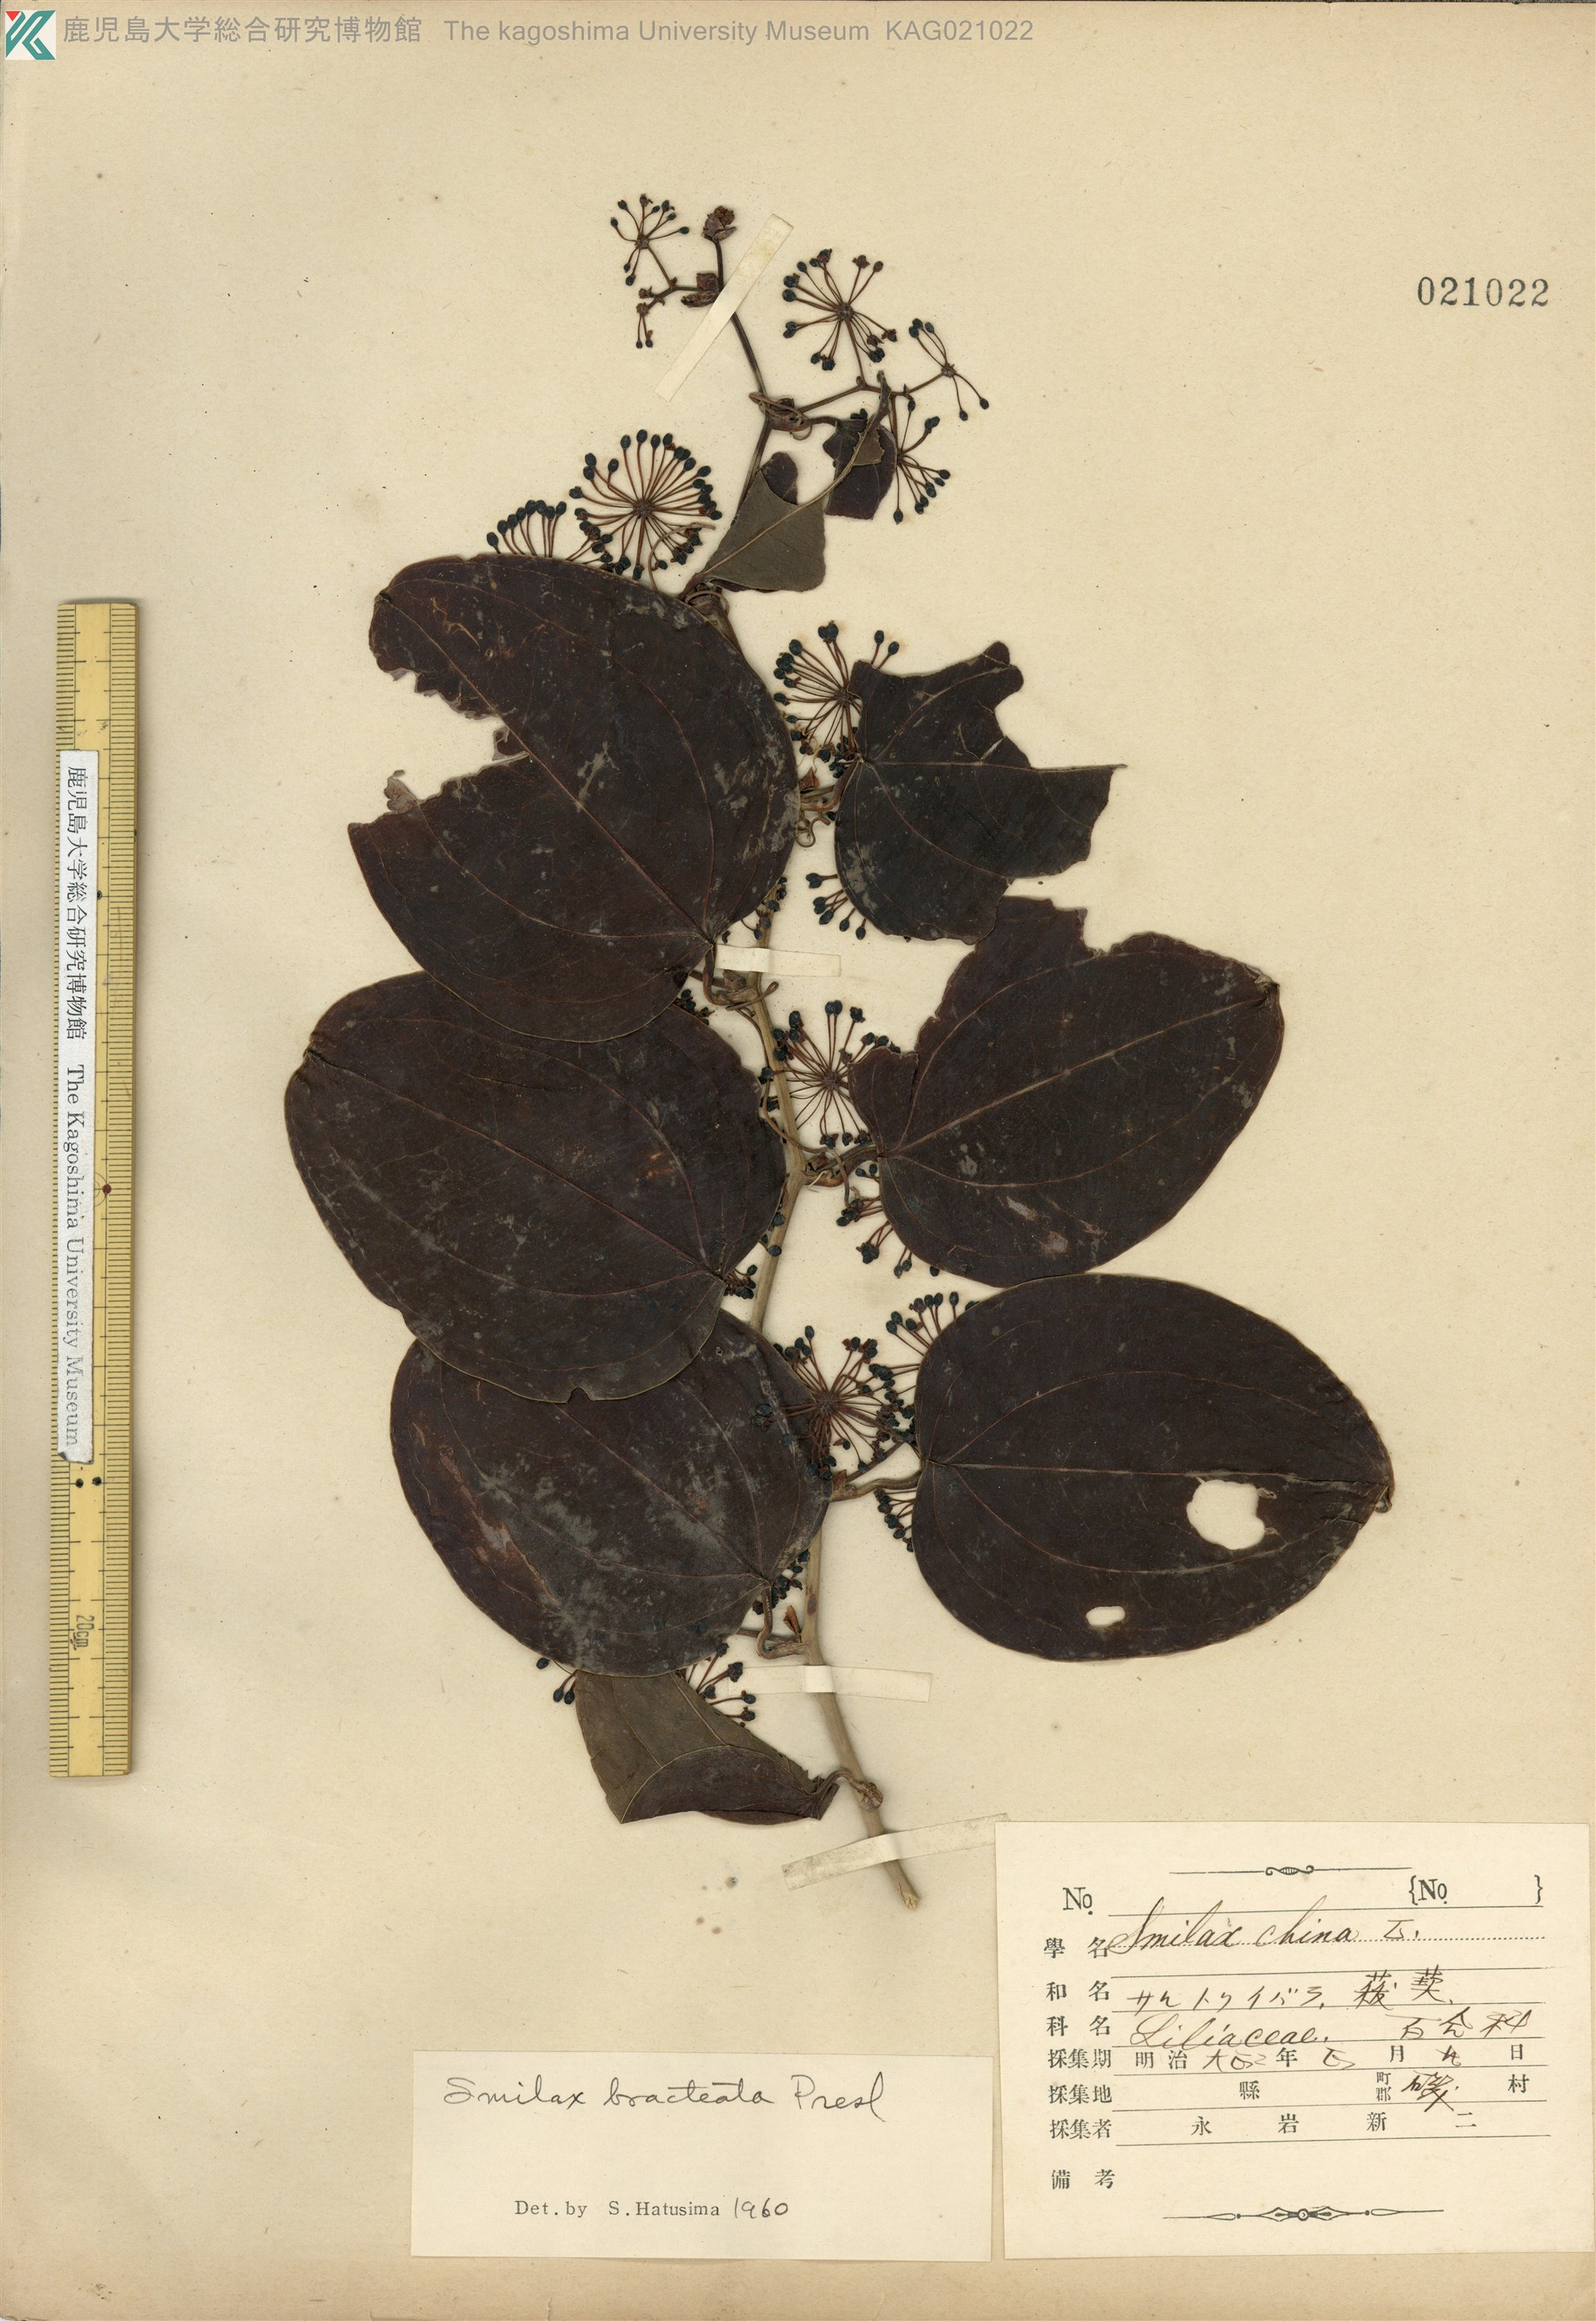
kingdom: Plantae
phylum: Tracheophyta
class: Liliopsida
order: Liliales
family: Smilacaceae
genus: Smilax
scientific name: Smilax bracteata
